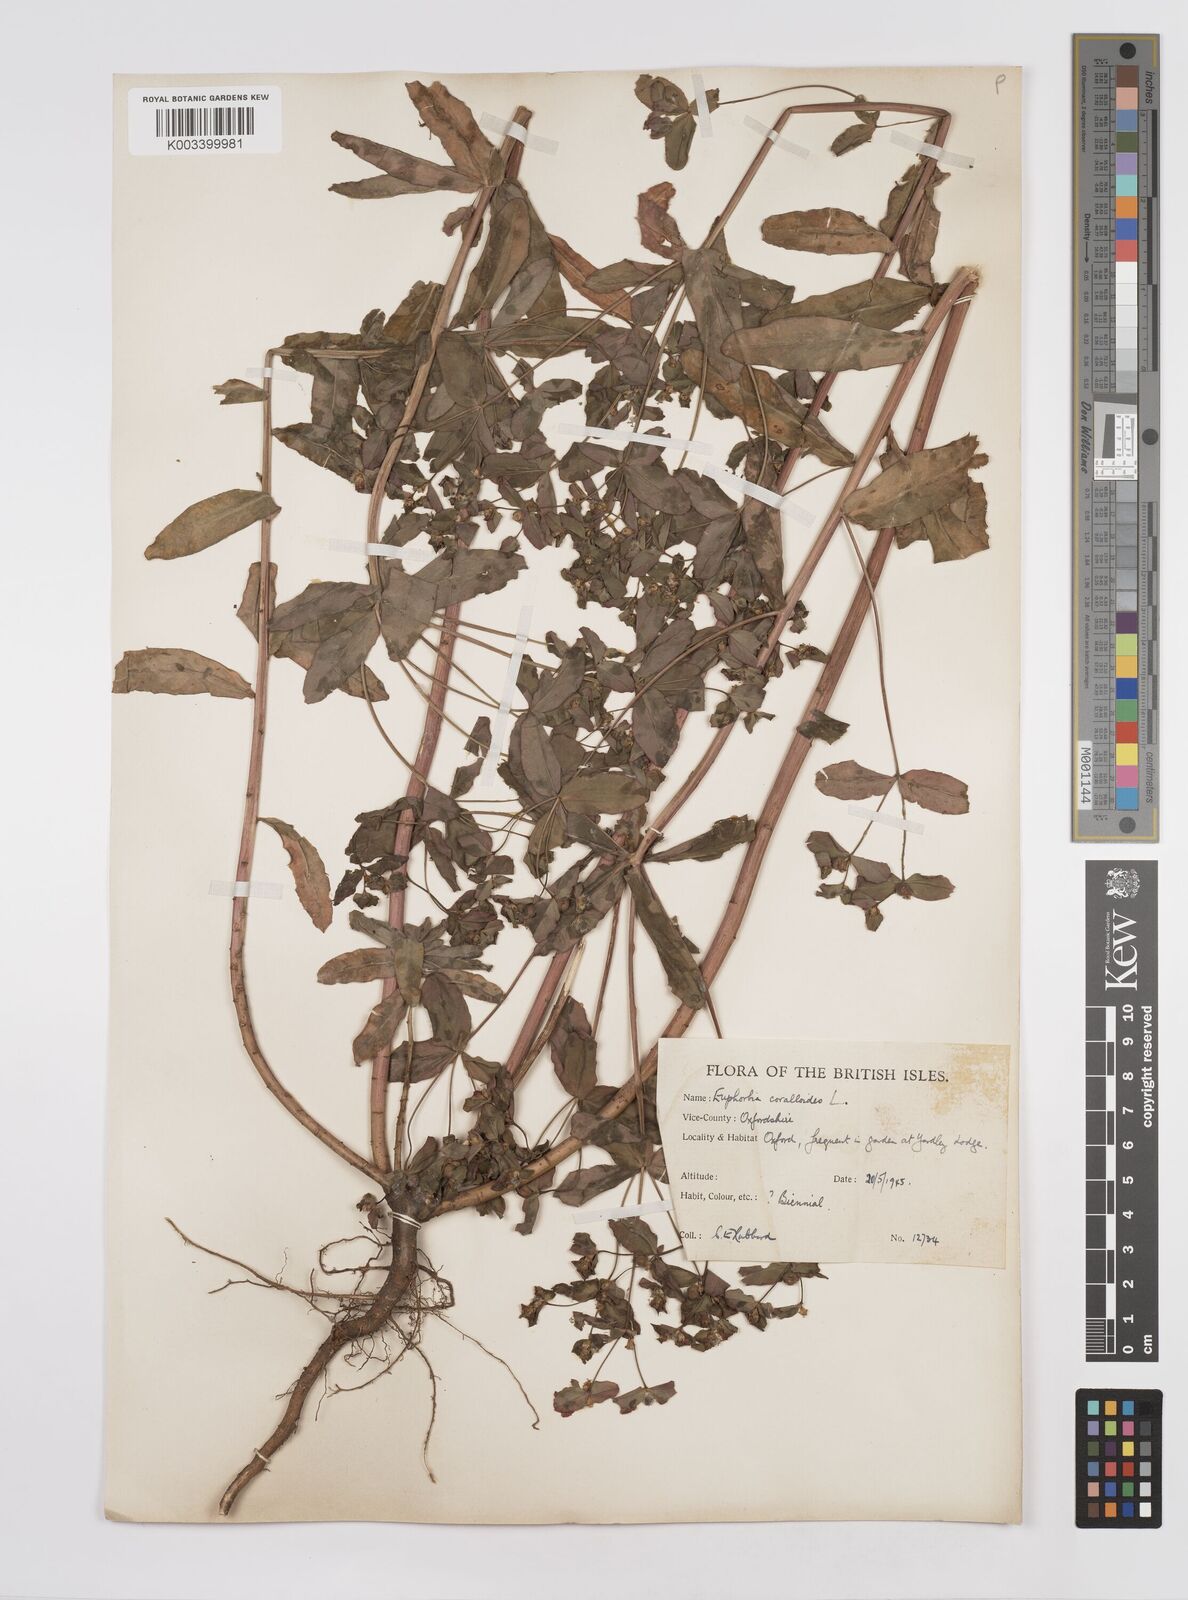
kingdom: Plantae
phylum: Tracheophyta
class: Magnoliopsida
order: Malpighiales
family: Euphorbiaceae
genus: Euphorbia
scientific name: Euphorbia corallioides
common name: Coral spurge
